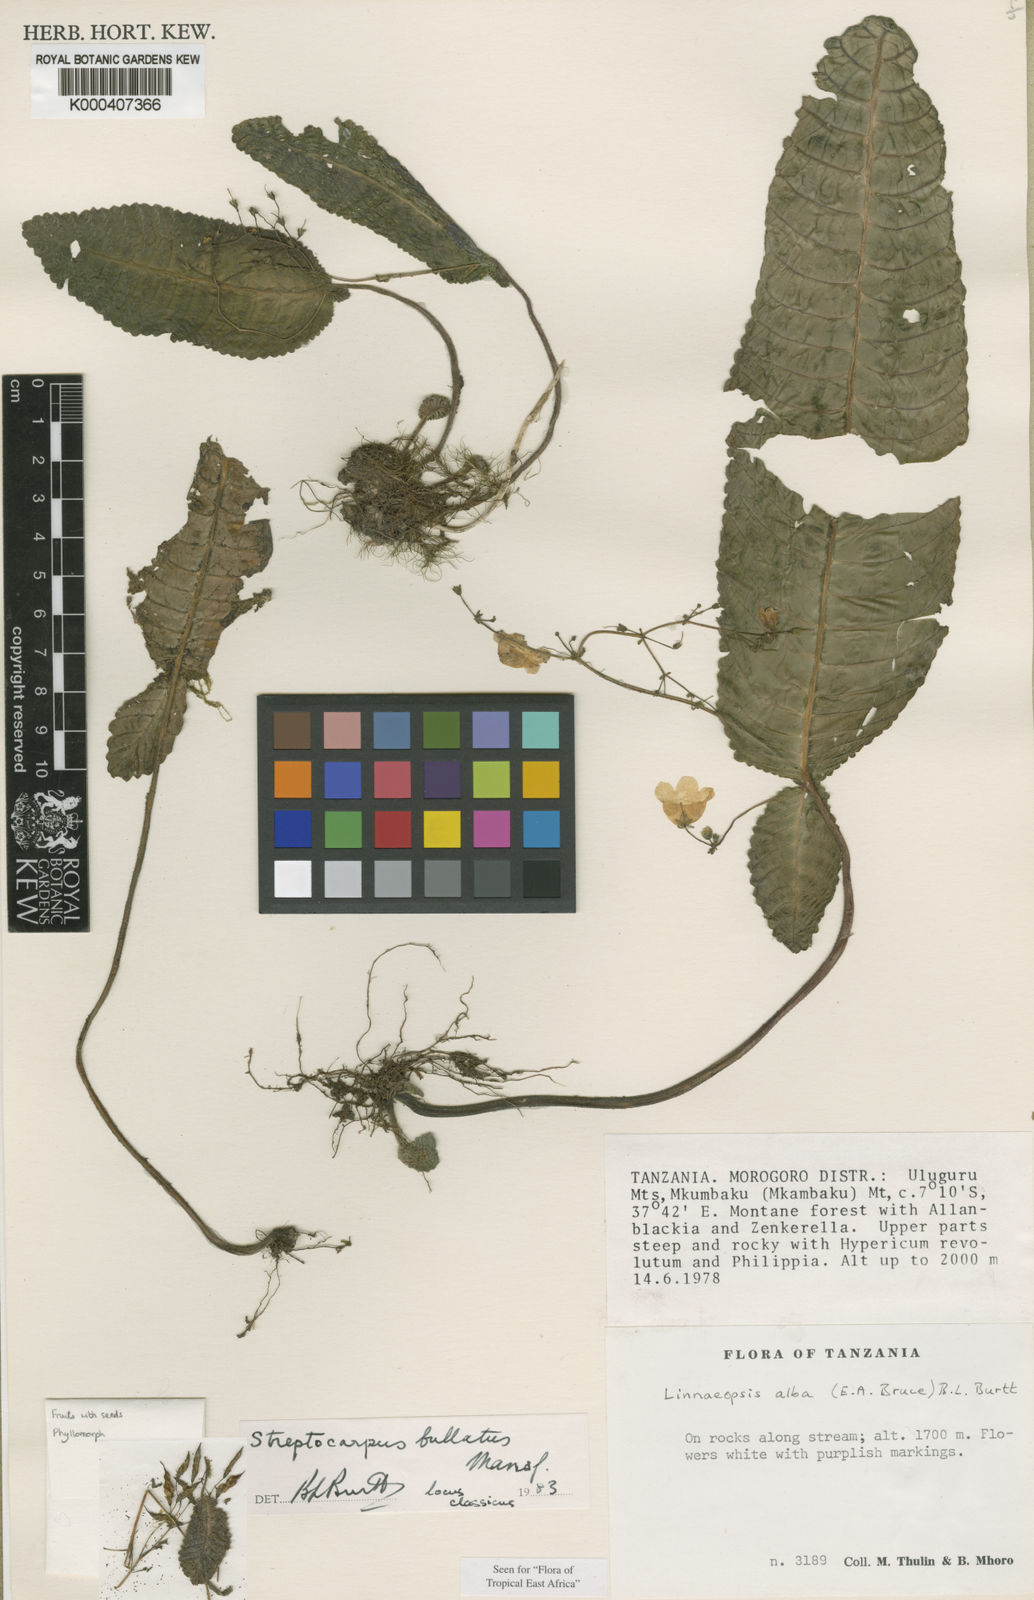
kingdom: Plantae
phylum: Tracheophyta
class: Magnoliopsida
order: Lamiales
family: Gesneriaceae
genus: Streptocarpus
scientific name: Streptocarpus bullatus
